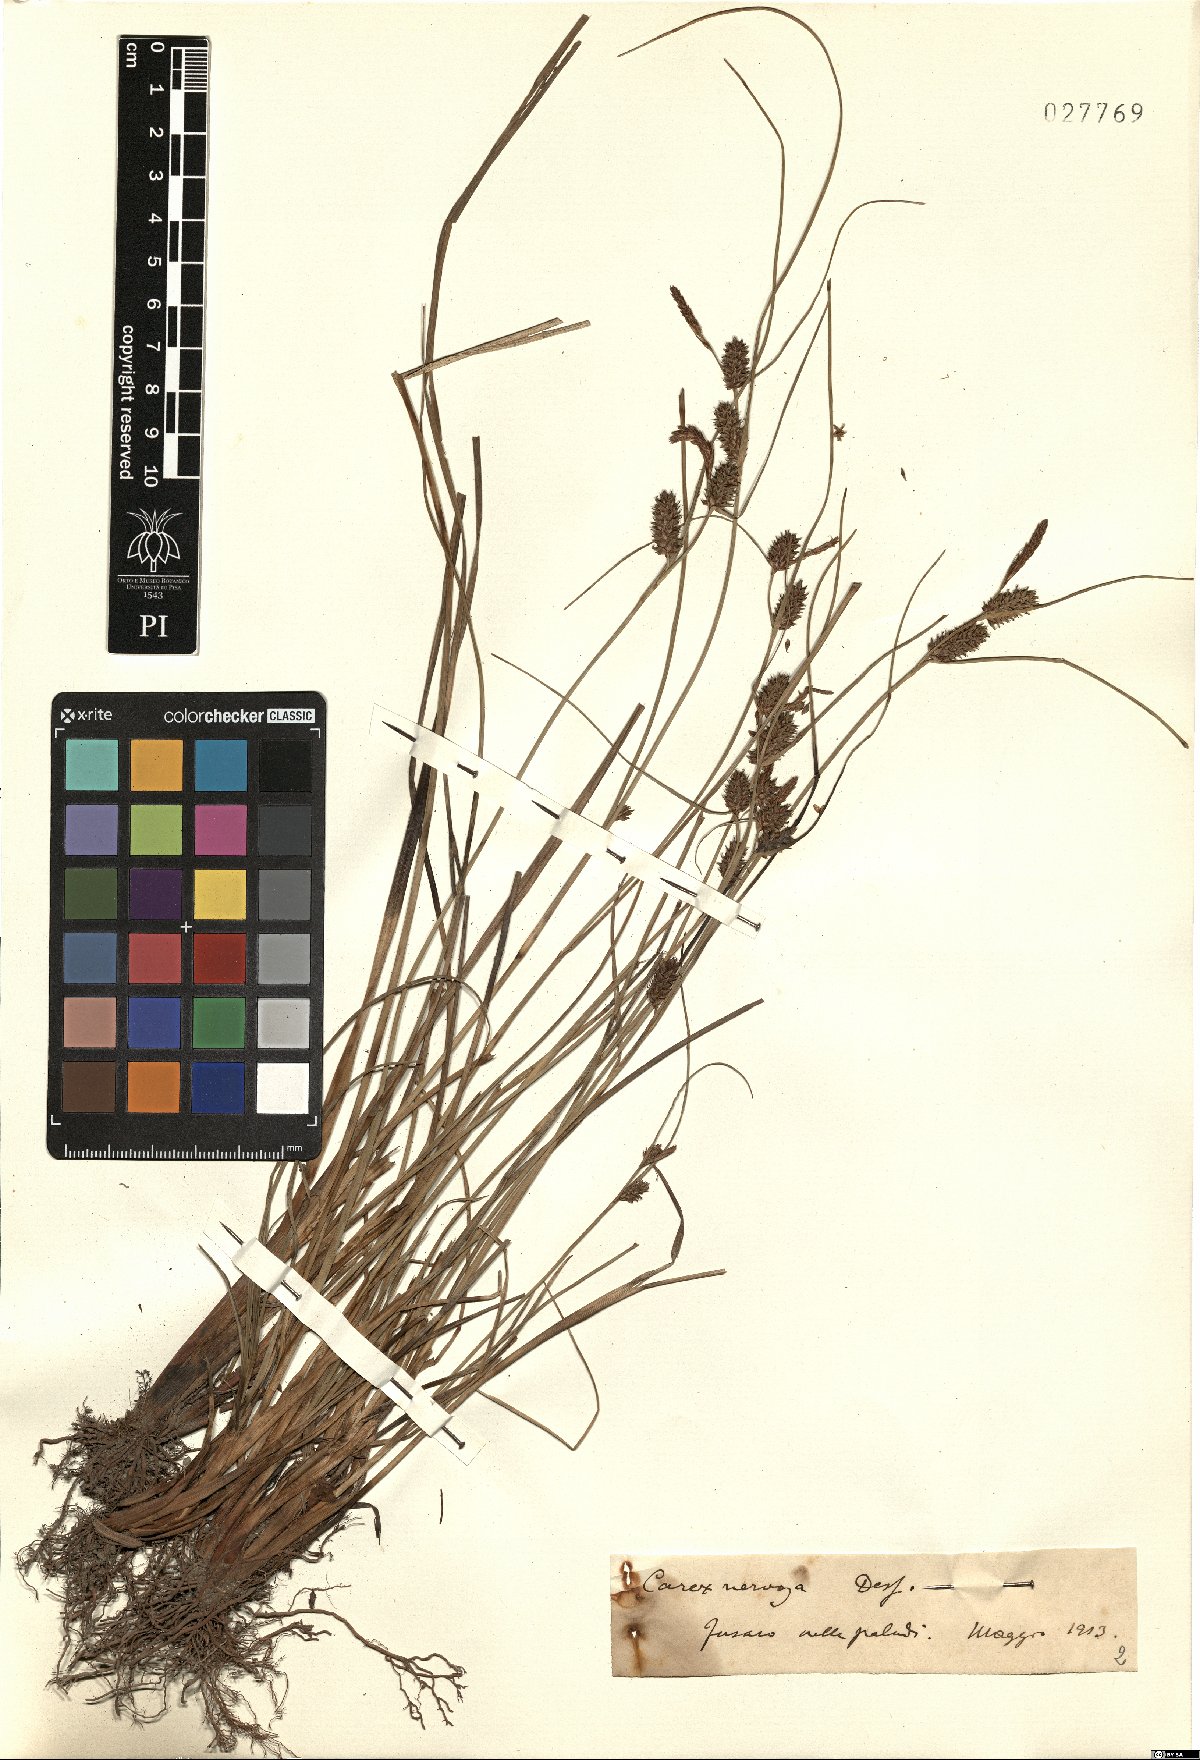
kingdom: Plantae
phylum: Tracheophyta
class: Liliopsida
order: Poales
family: Cyperaceae
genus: Carex
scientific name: Carex extensa
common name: Long-bracted sedge
